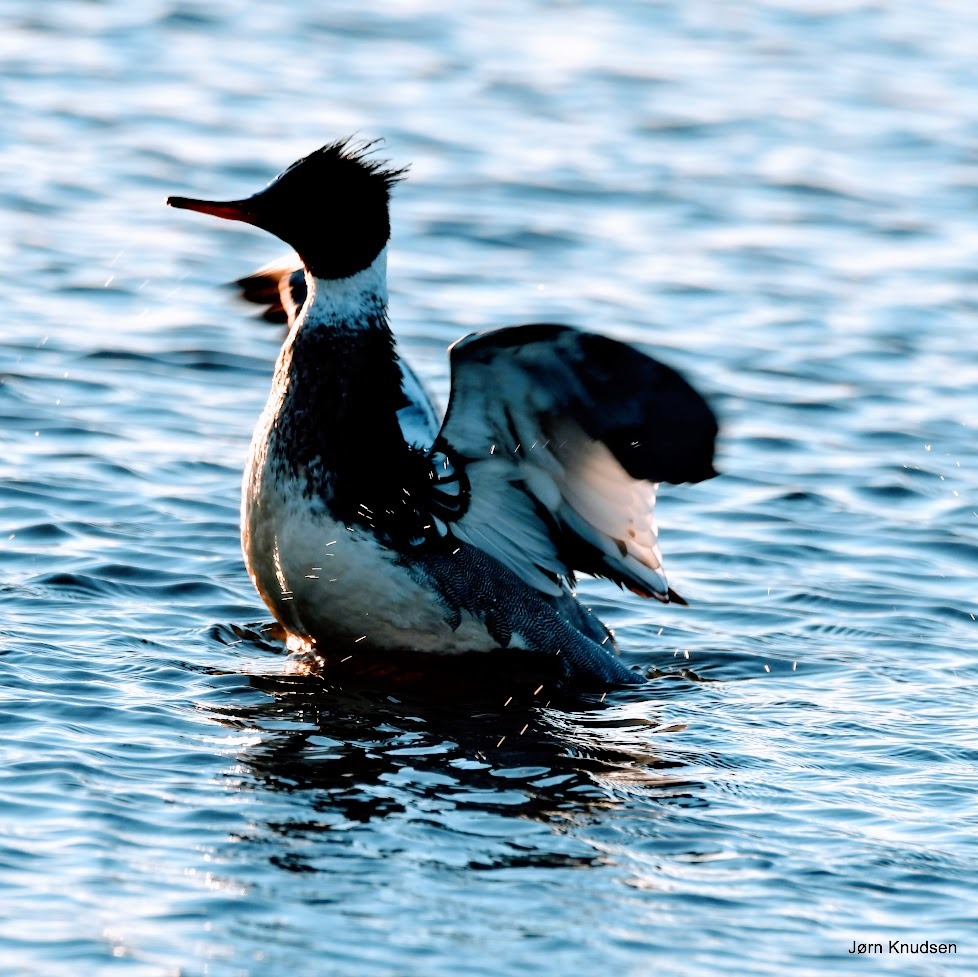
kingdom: Animalia
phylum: Chordata
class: Aves
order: Anseriformes
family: Anatidae
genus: Mergus
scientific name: Mergus serrator
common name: Toppet skallesluger
